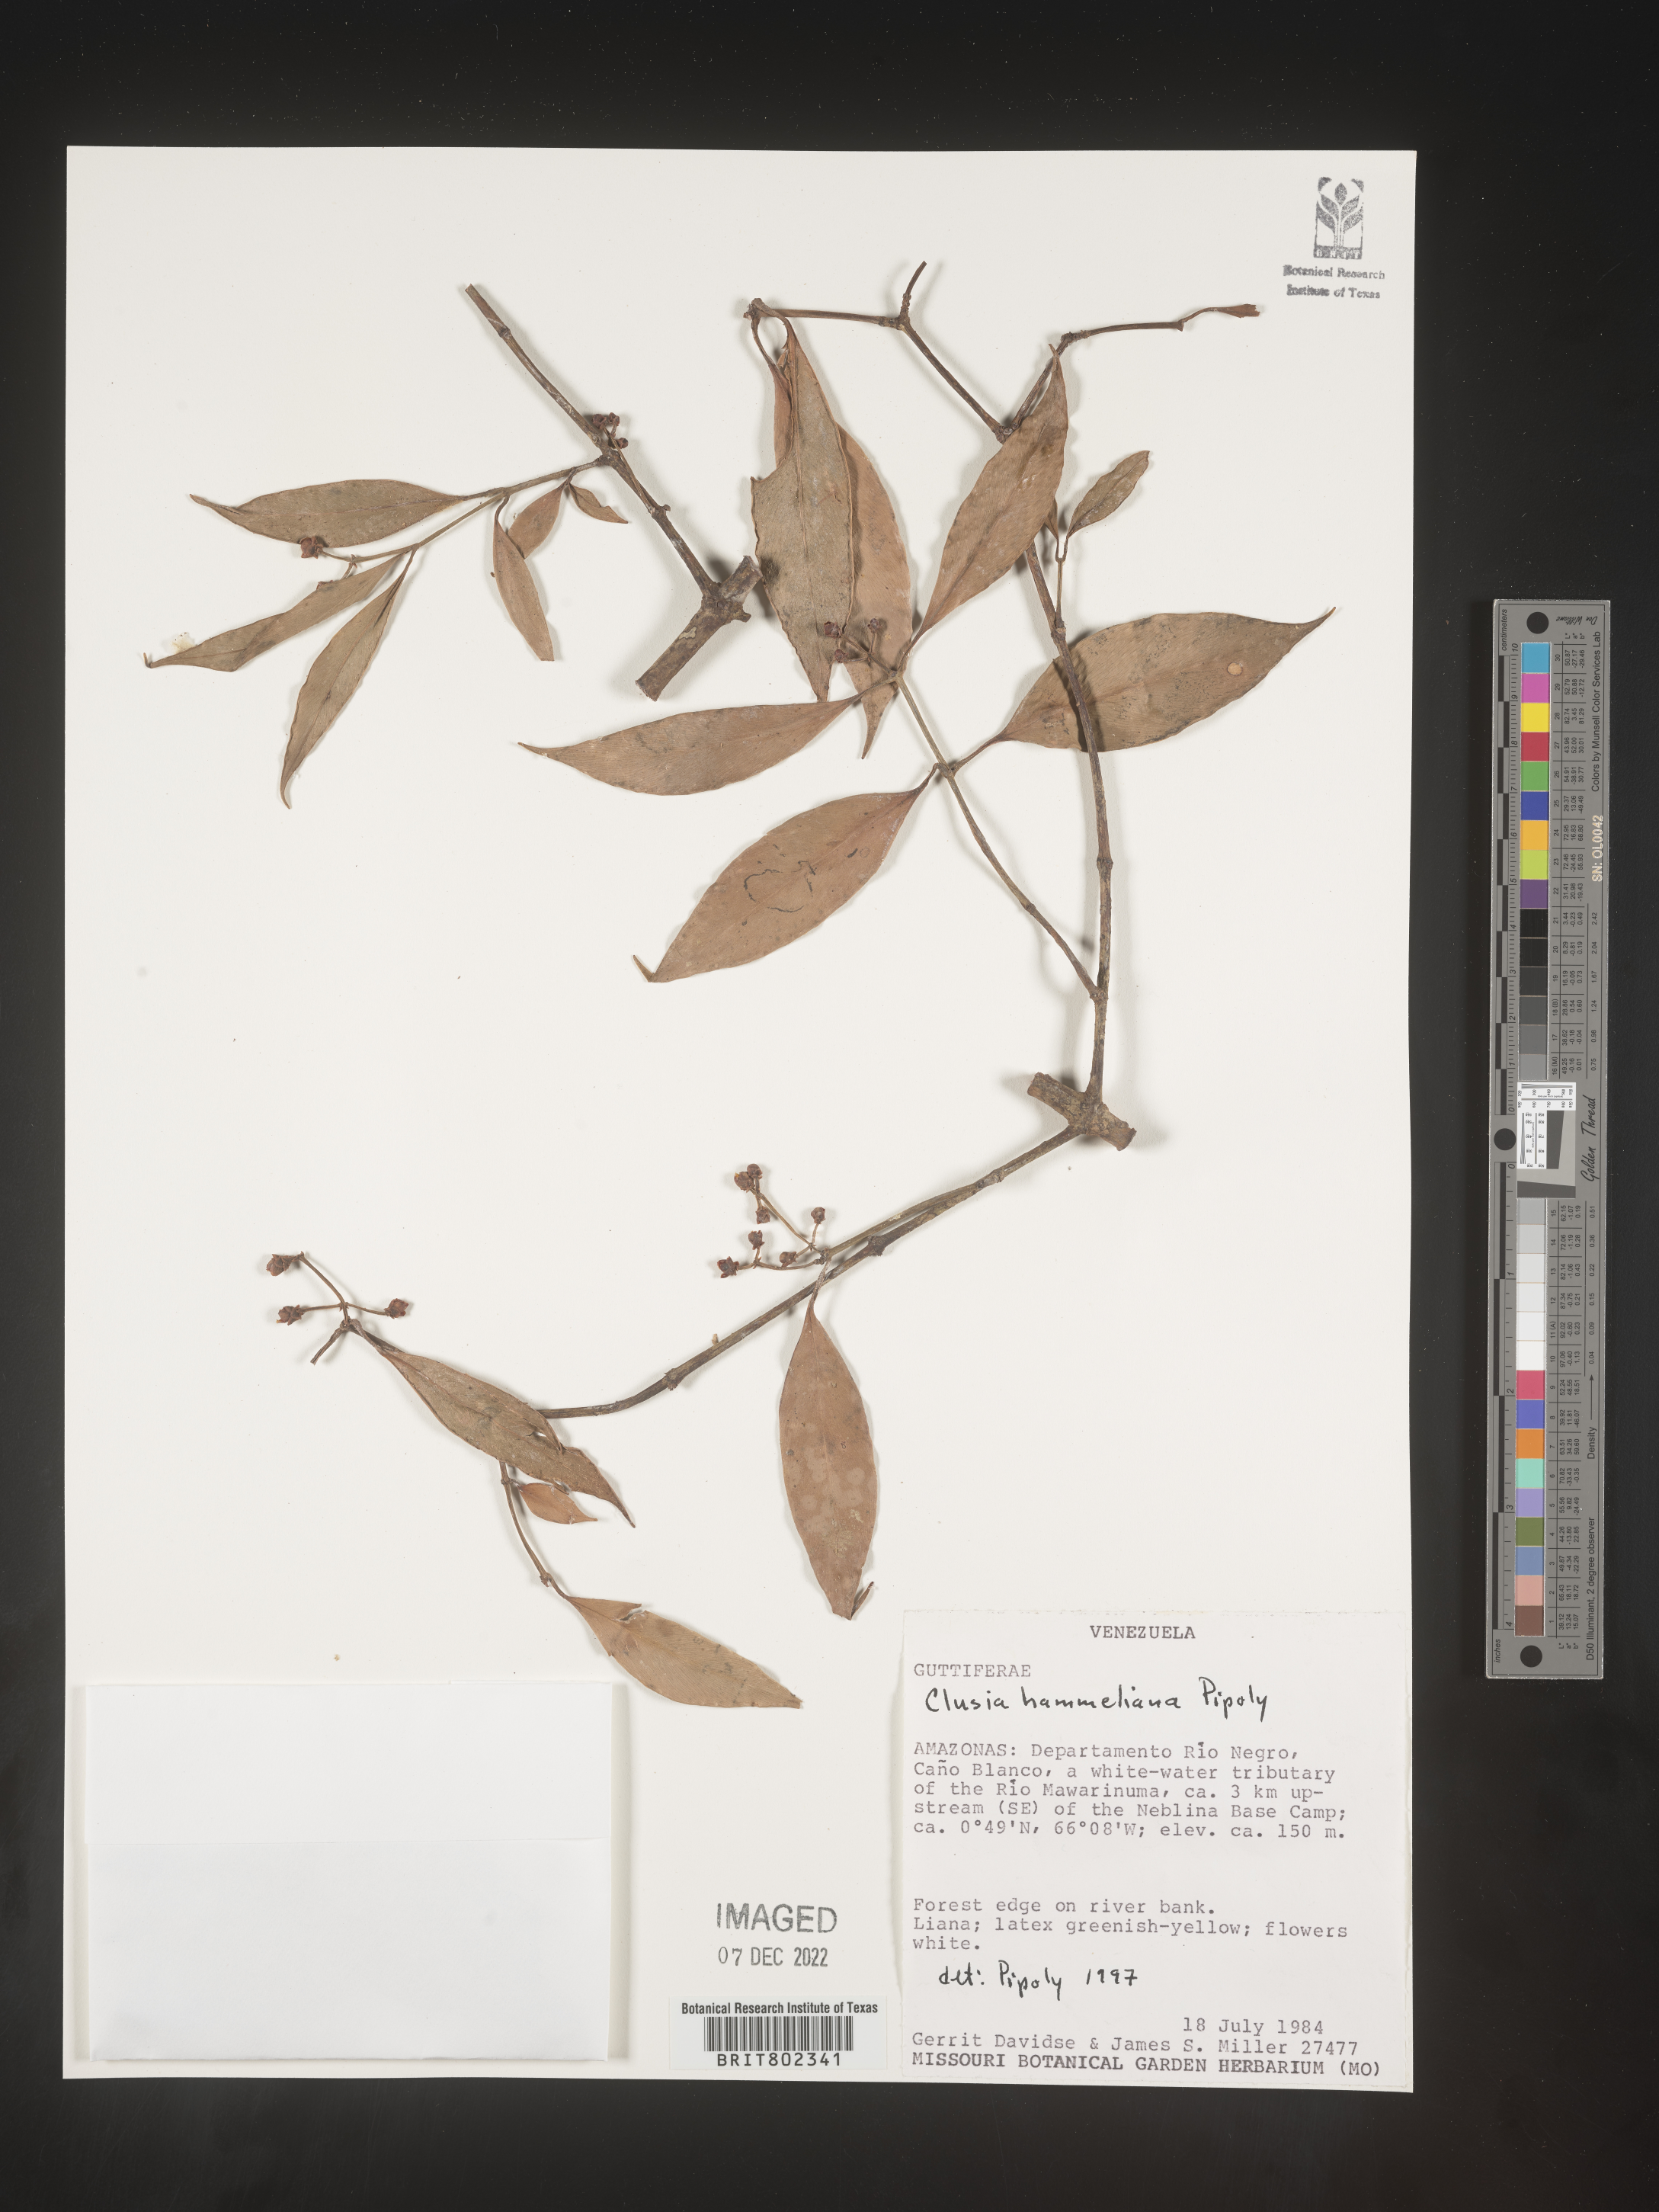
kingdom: Plantae
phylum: Tracheophyta
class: Magnoliopsida
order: Malpighiales
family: Clusiaceae
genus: Clusia
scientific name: Clusia hammeliana
